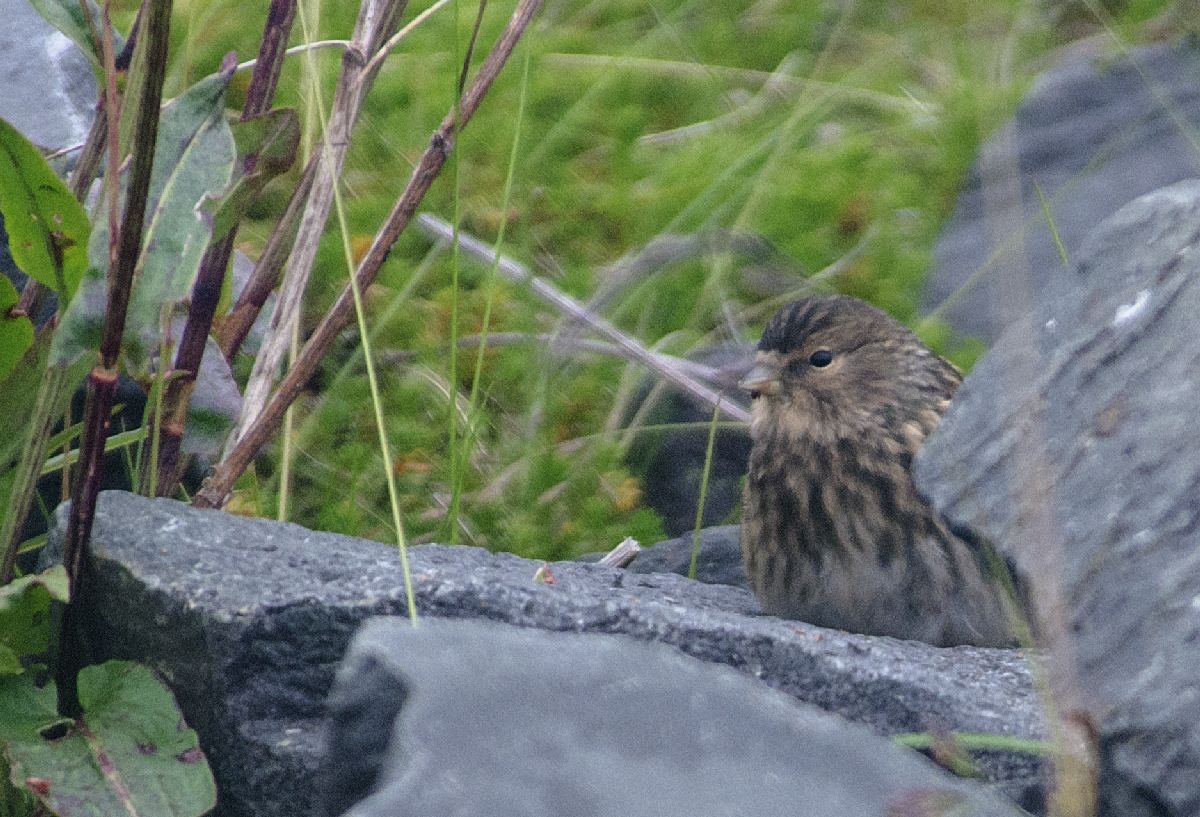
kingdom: Animalia
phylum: Chordata
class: Aves
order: Passeriformes
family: Fringillidae
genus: Linaria
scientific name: Linaria flavirostris
